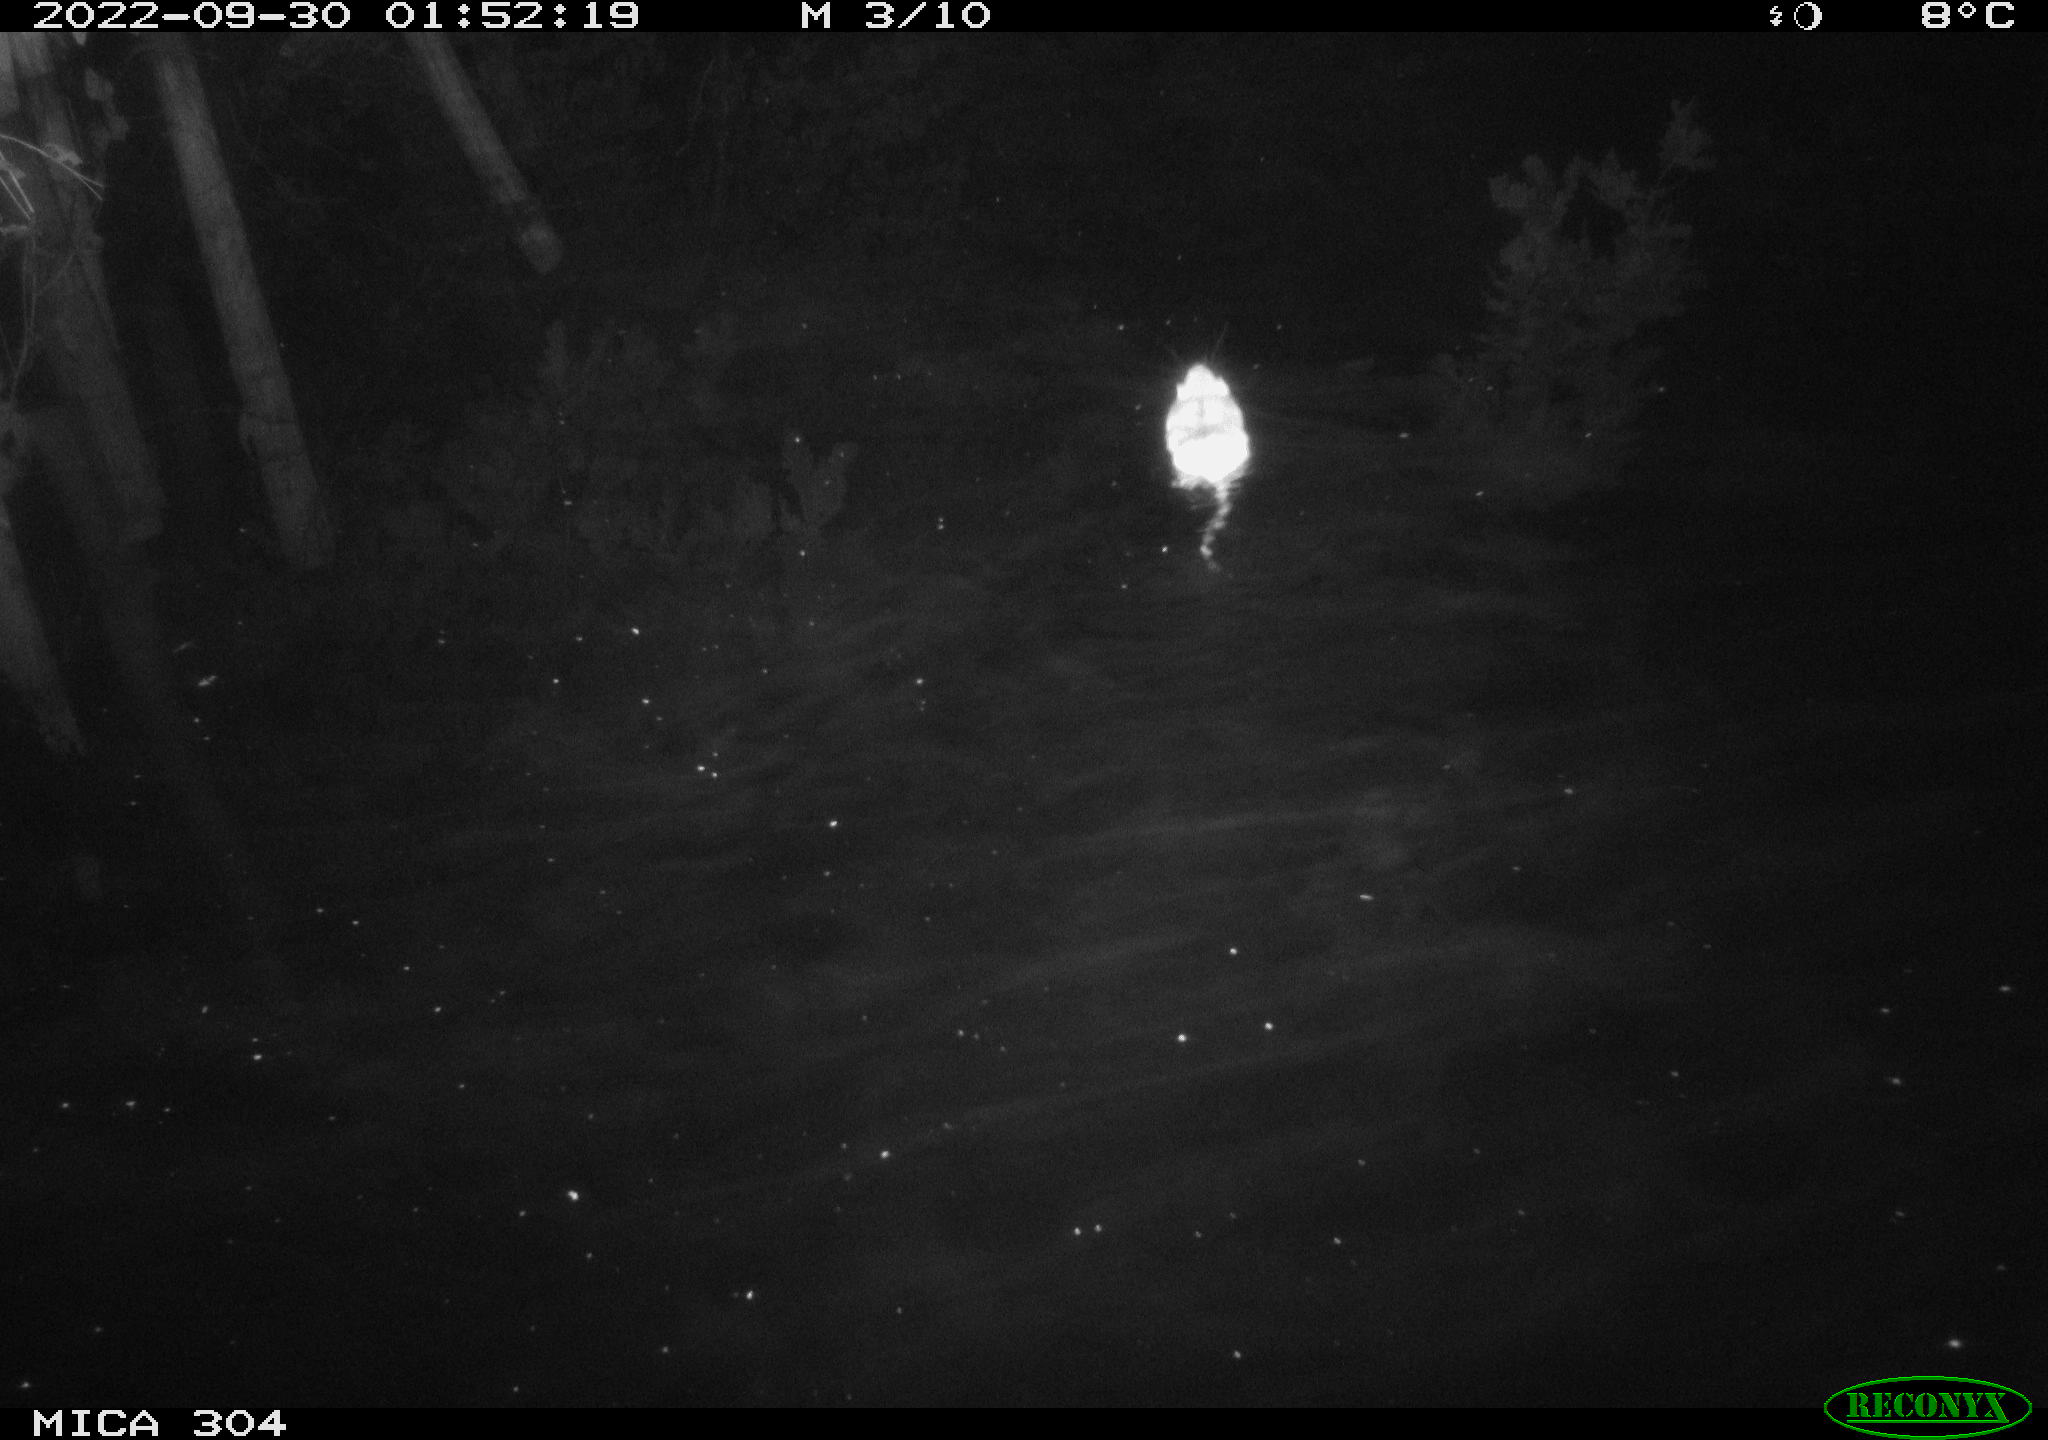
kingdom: Animalia
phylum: Chordata
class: Mammalia
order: Rodentia
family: Muridae
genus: Rattus
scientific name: Rattus norvegicus
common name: Brown rat
